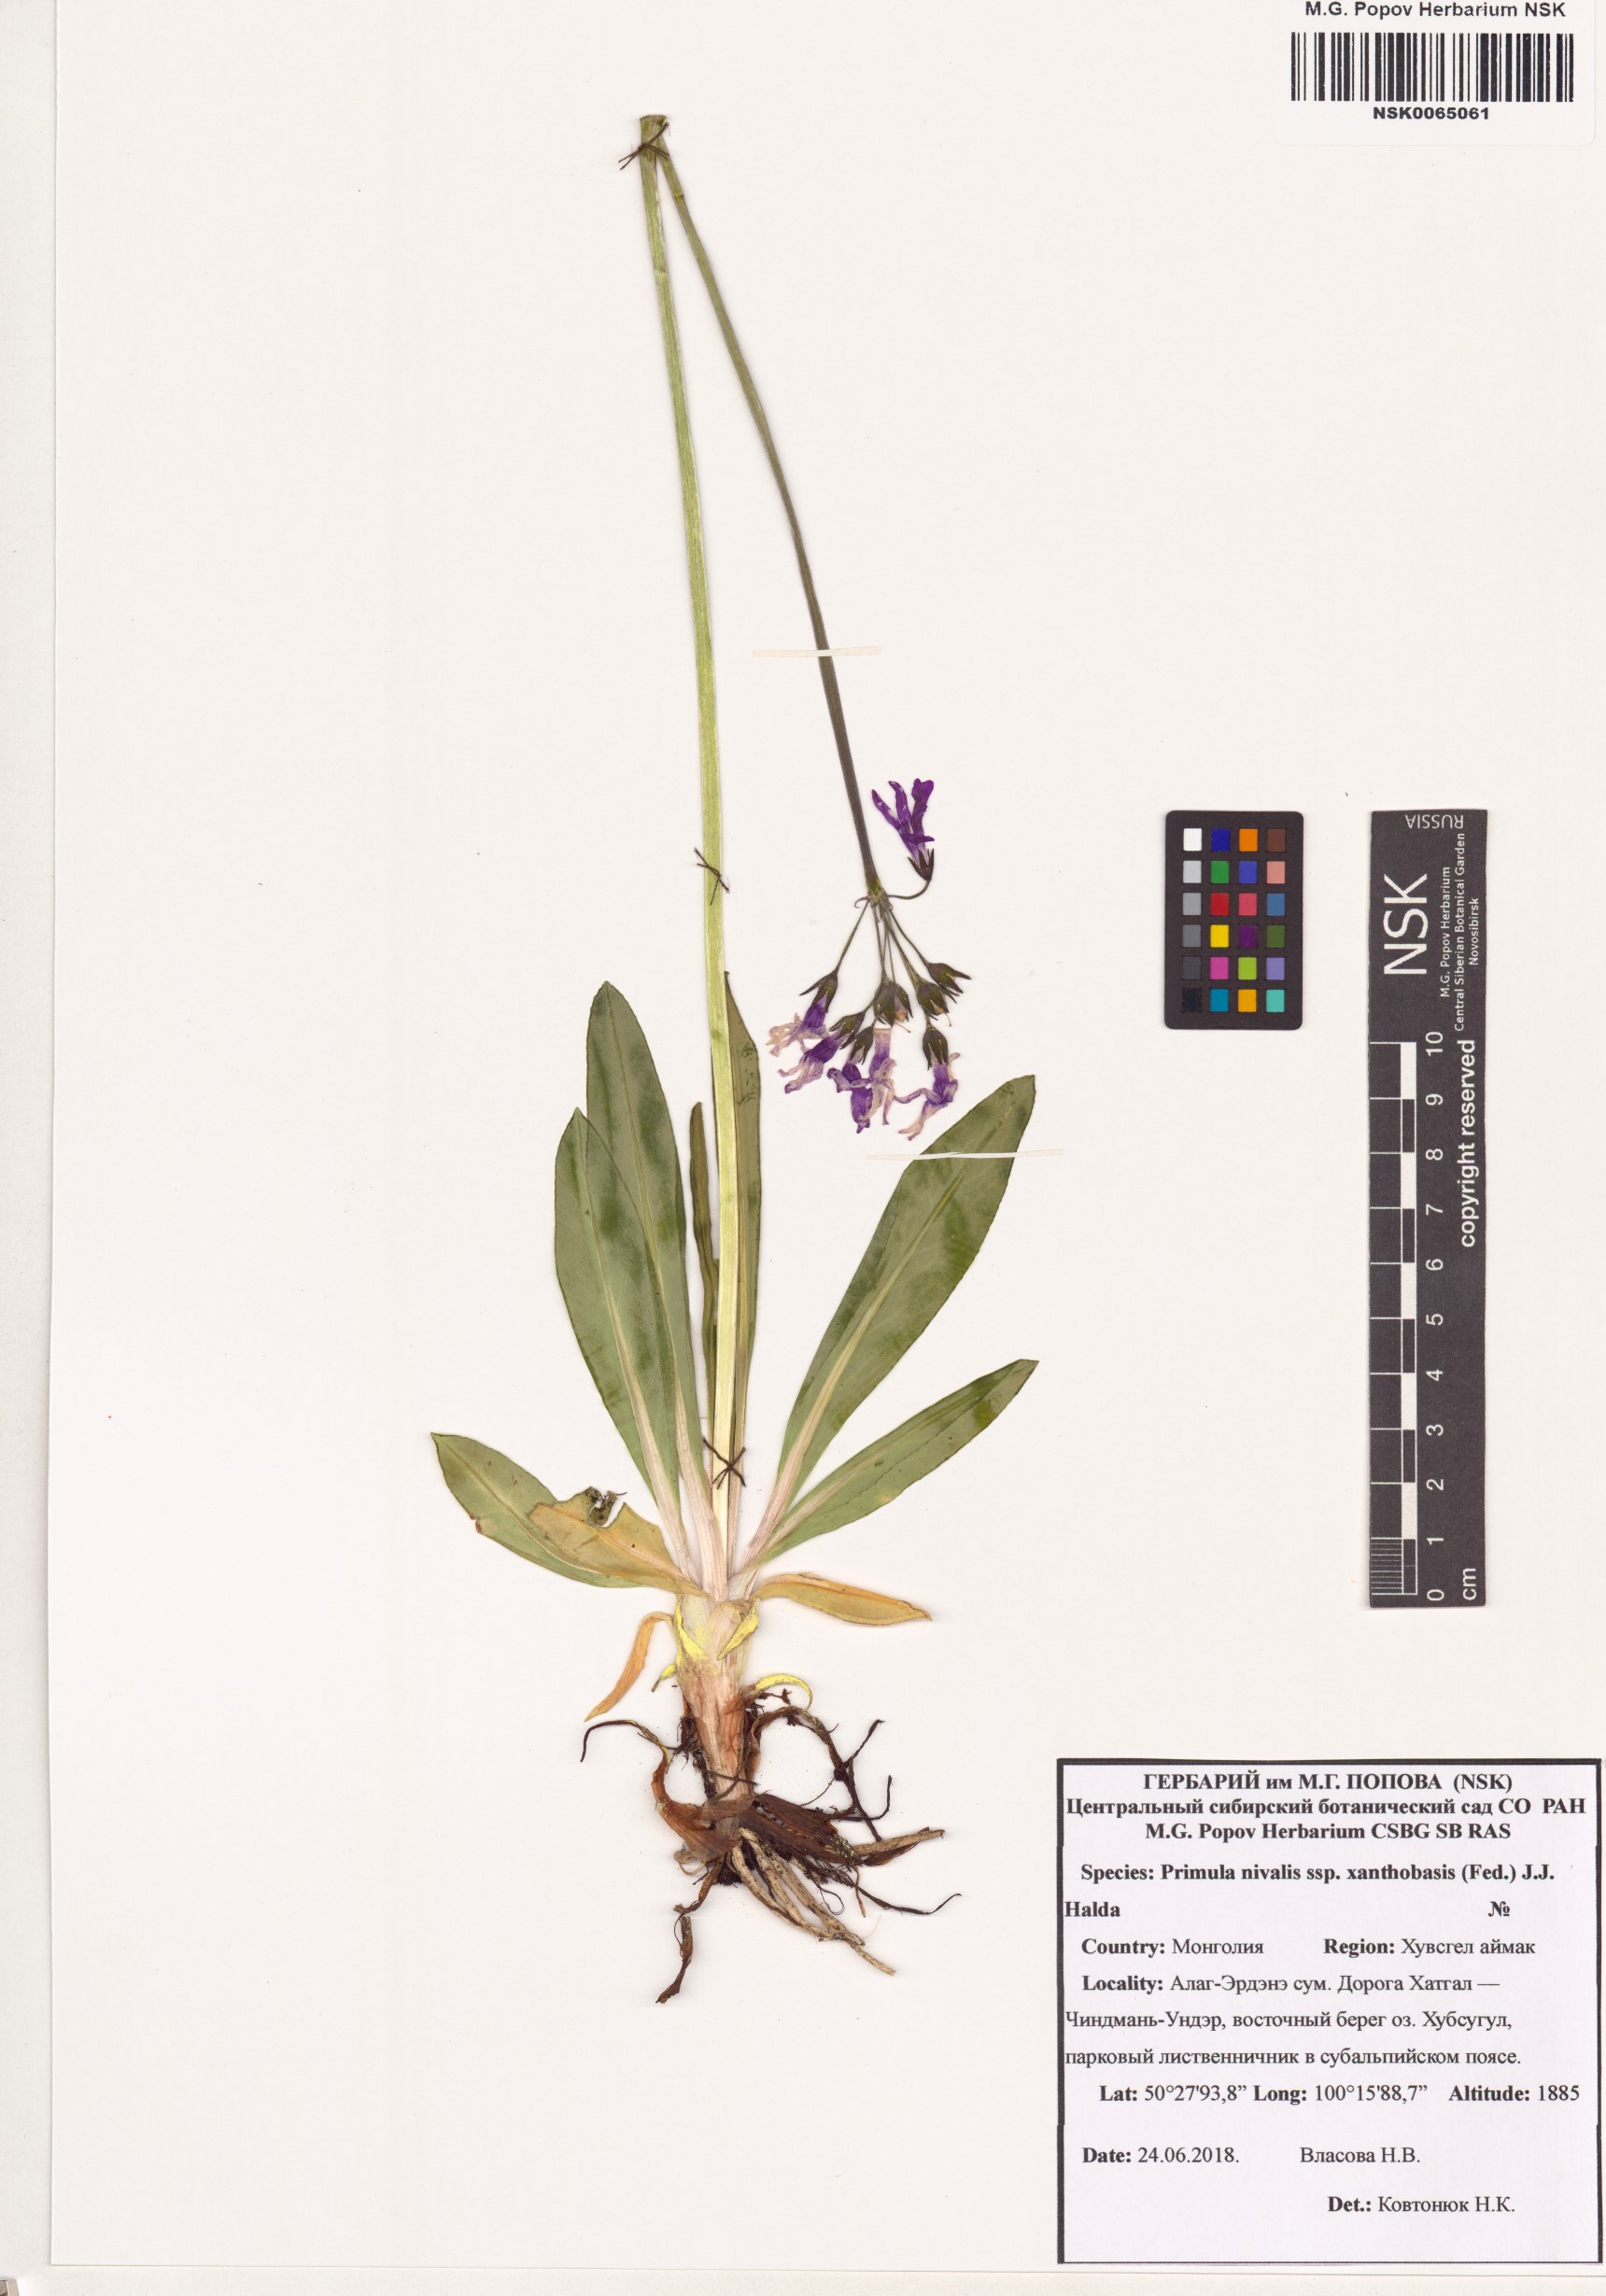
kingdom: Plantae
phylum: Tracheophyta
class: Magnoliopsida
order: Ericales
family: Primulaceae
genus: Primula
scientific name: Primula nivalis
